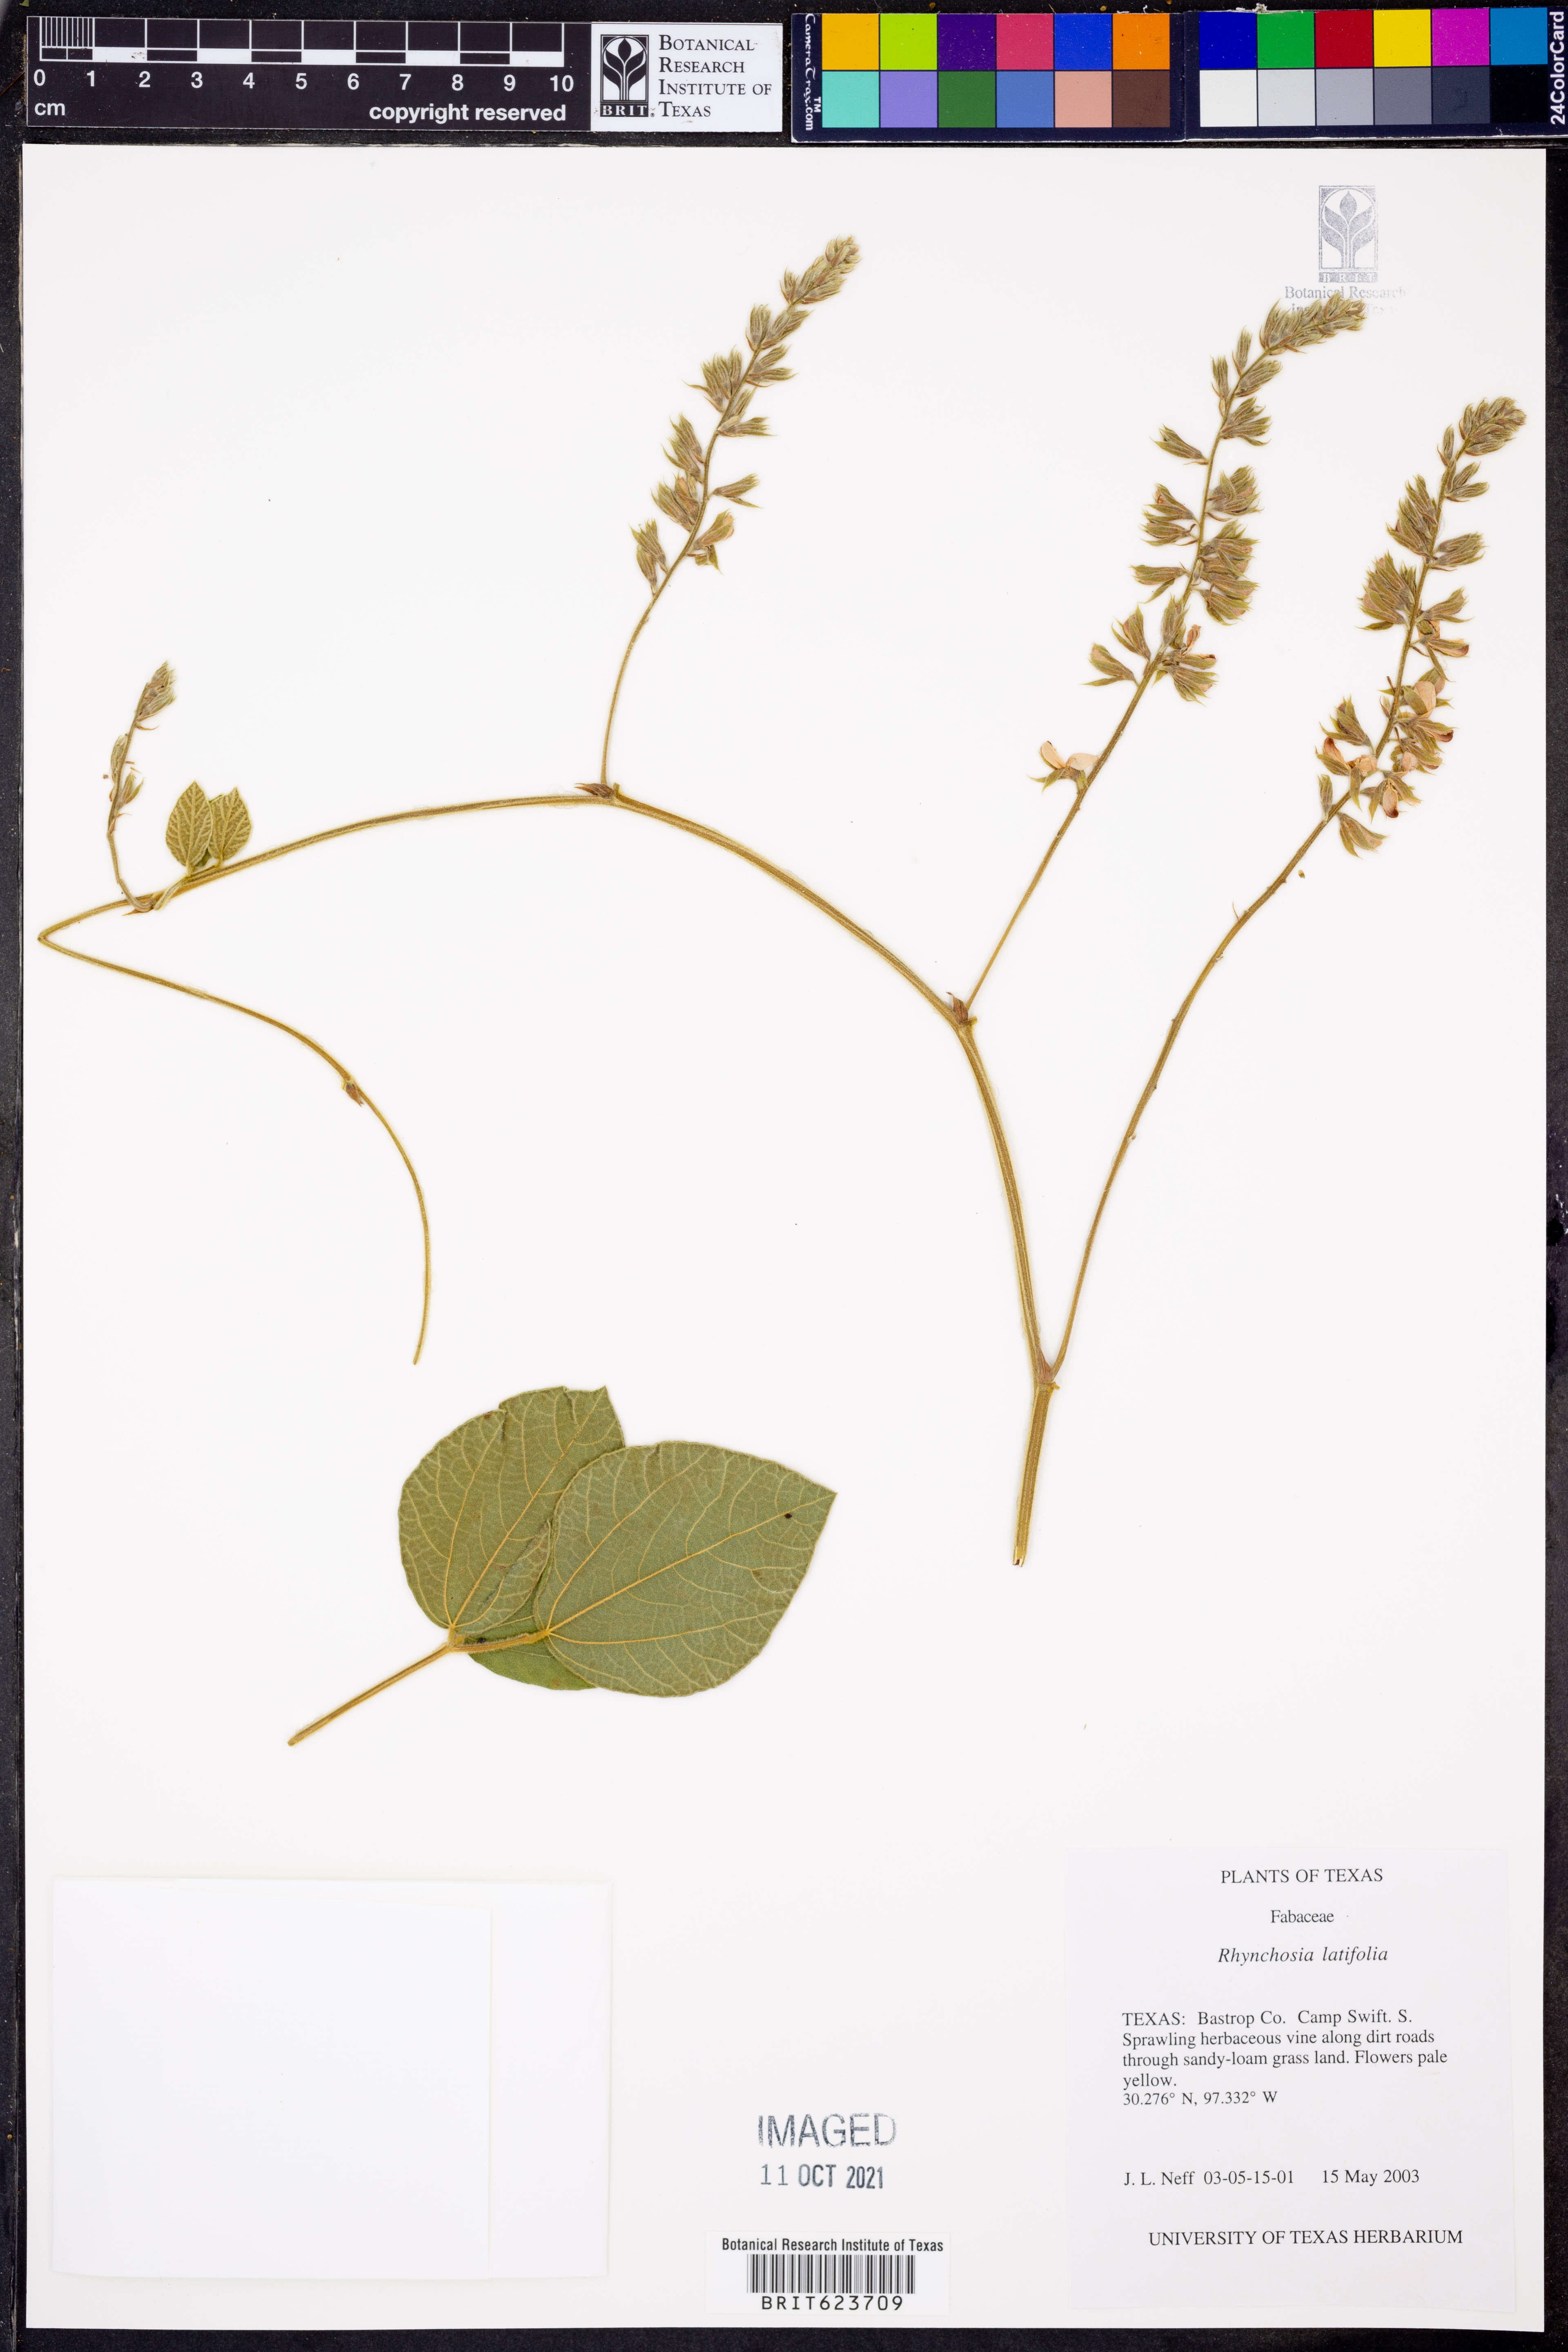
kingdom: Plantae
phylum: Tracheophyta
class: Magnoliopsida
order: Fabales
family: Fabaceae
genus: Rhynchosia
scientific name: Rhynchosia latifolia
